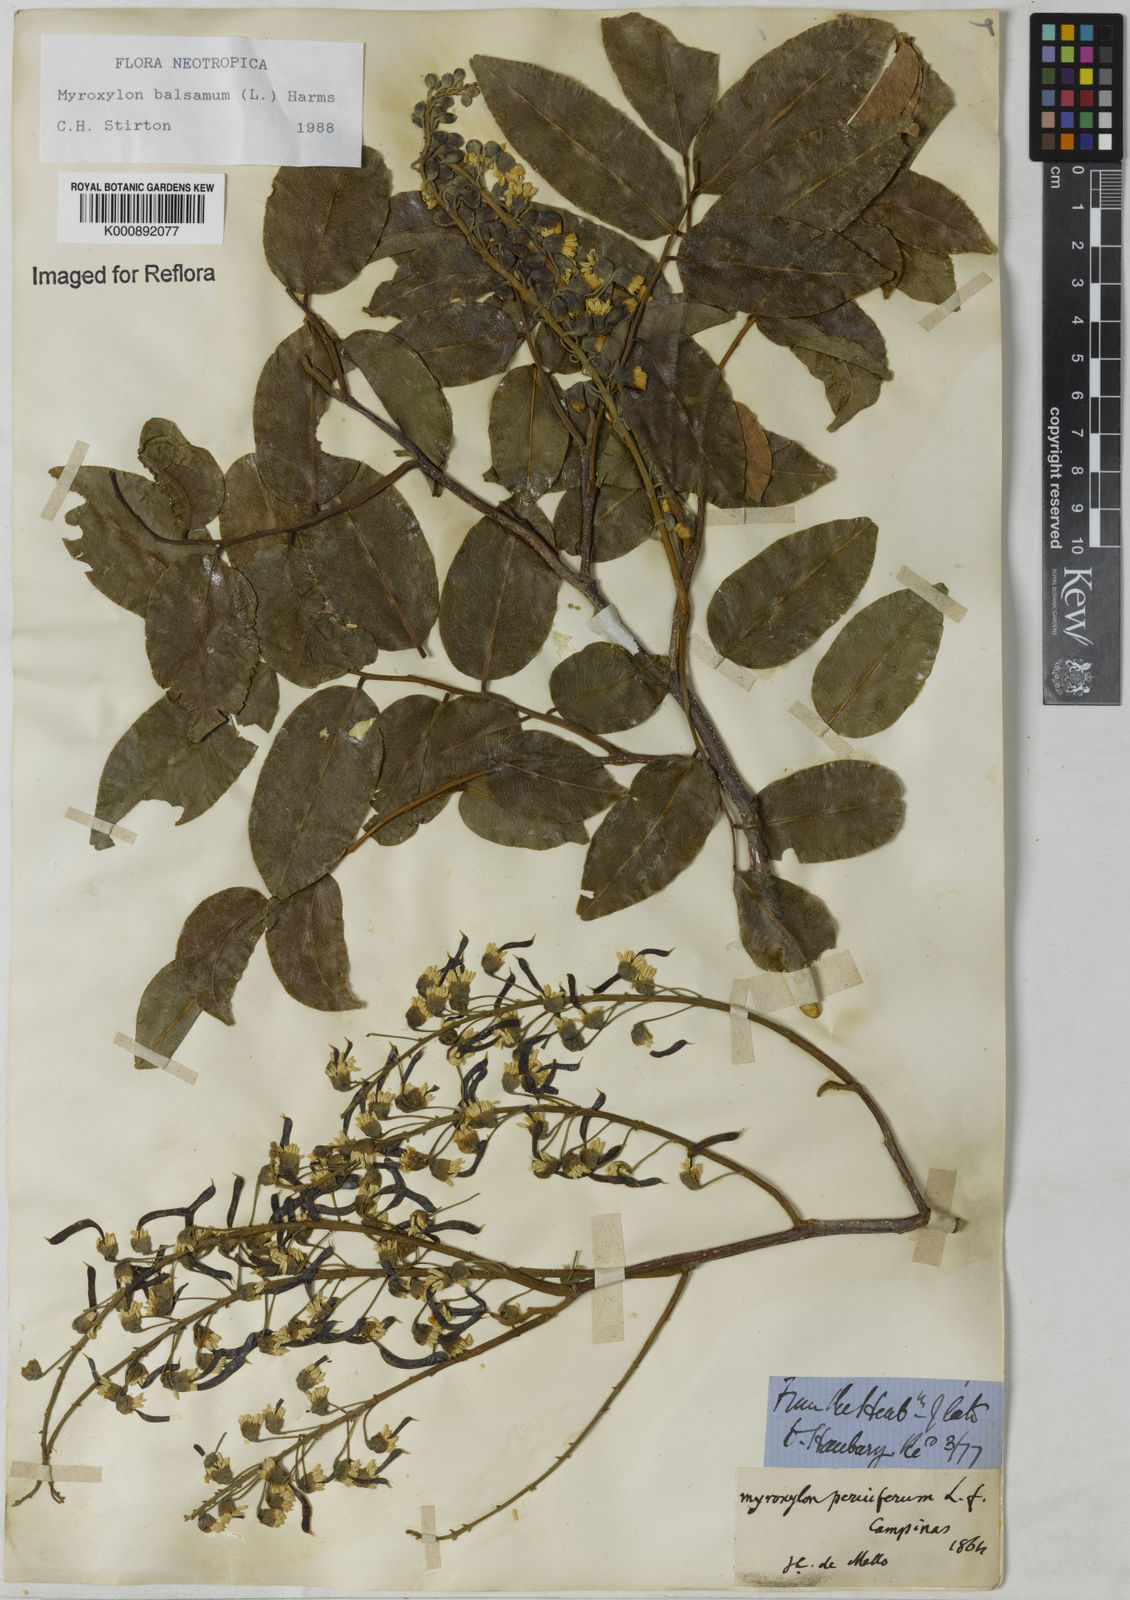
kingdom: Plantae
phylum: Tracheophyta
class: Magnoliopsida
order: Fabales
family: Fabaceae
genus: Myroxylon
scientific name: Myroxylon balsamum
